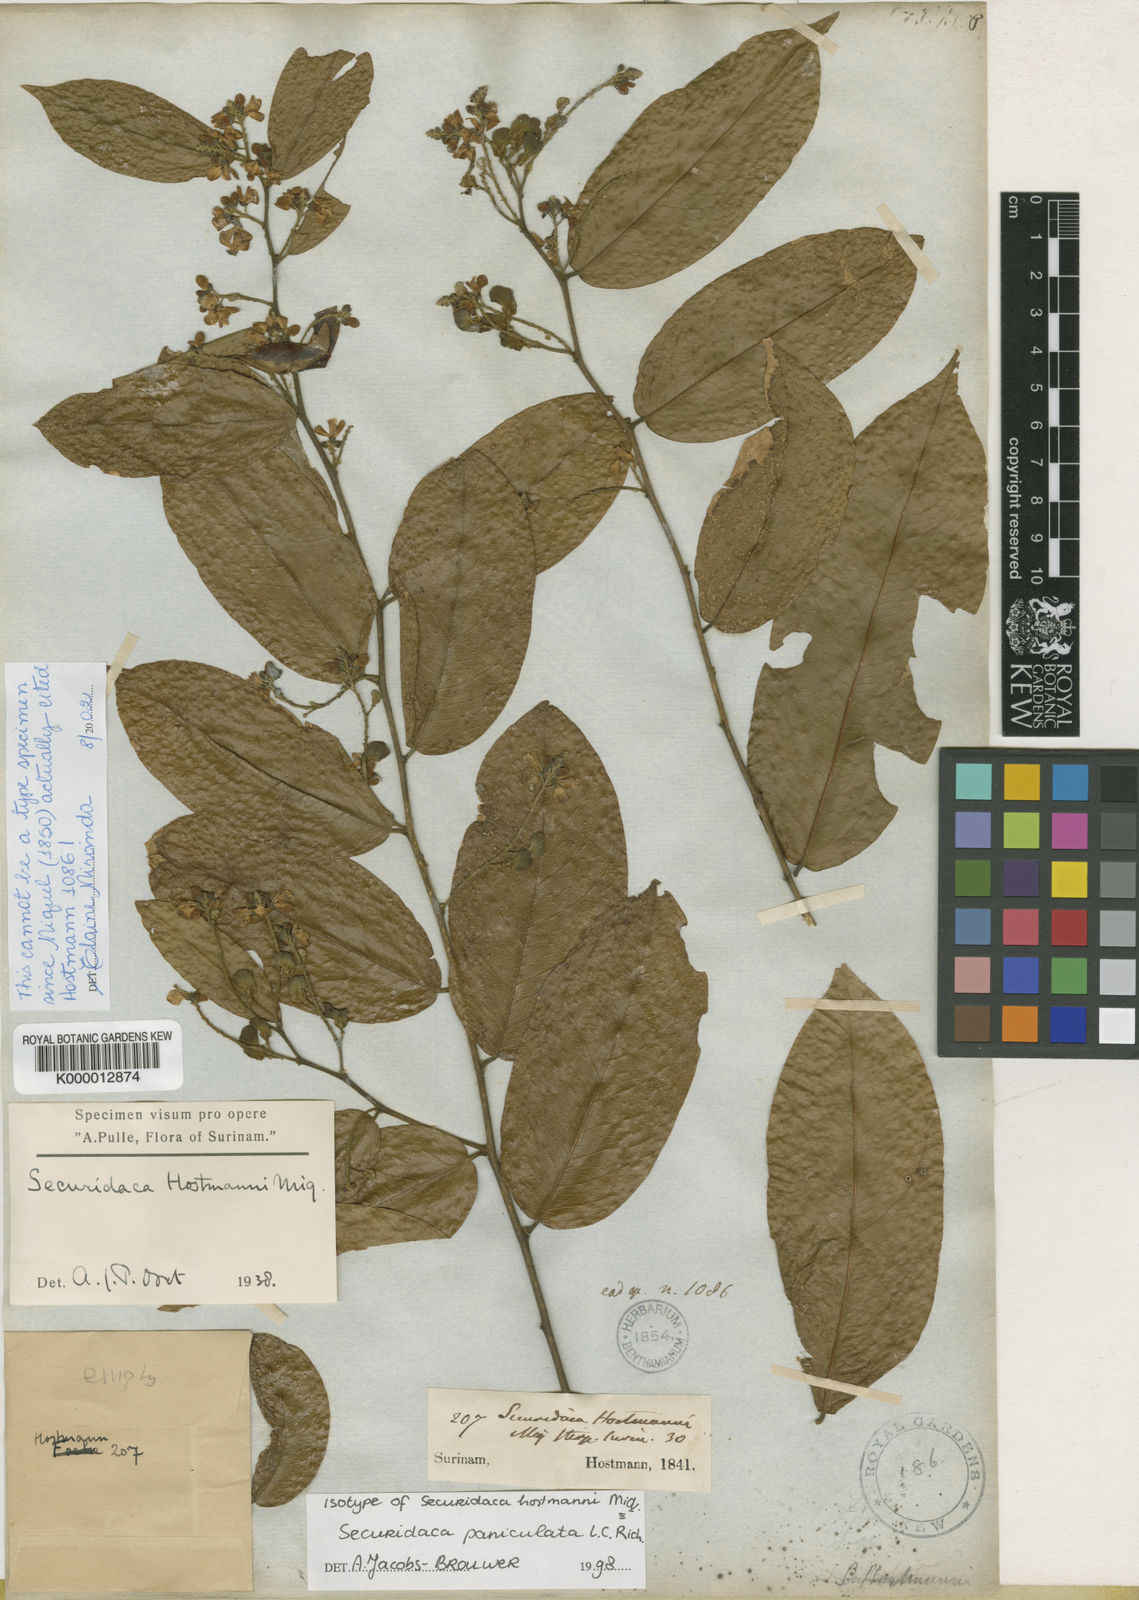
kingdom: Plantae
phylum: Tracheophyta
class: Magnoliopsida
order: Fabales
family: Polygalaceae
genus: Securidaca
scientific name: Securidaca paniculata
